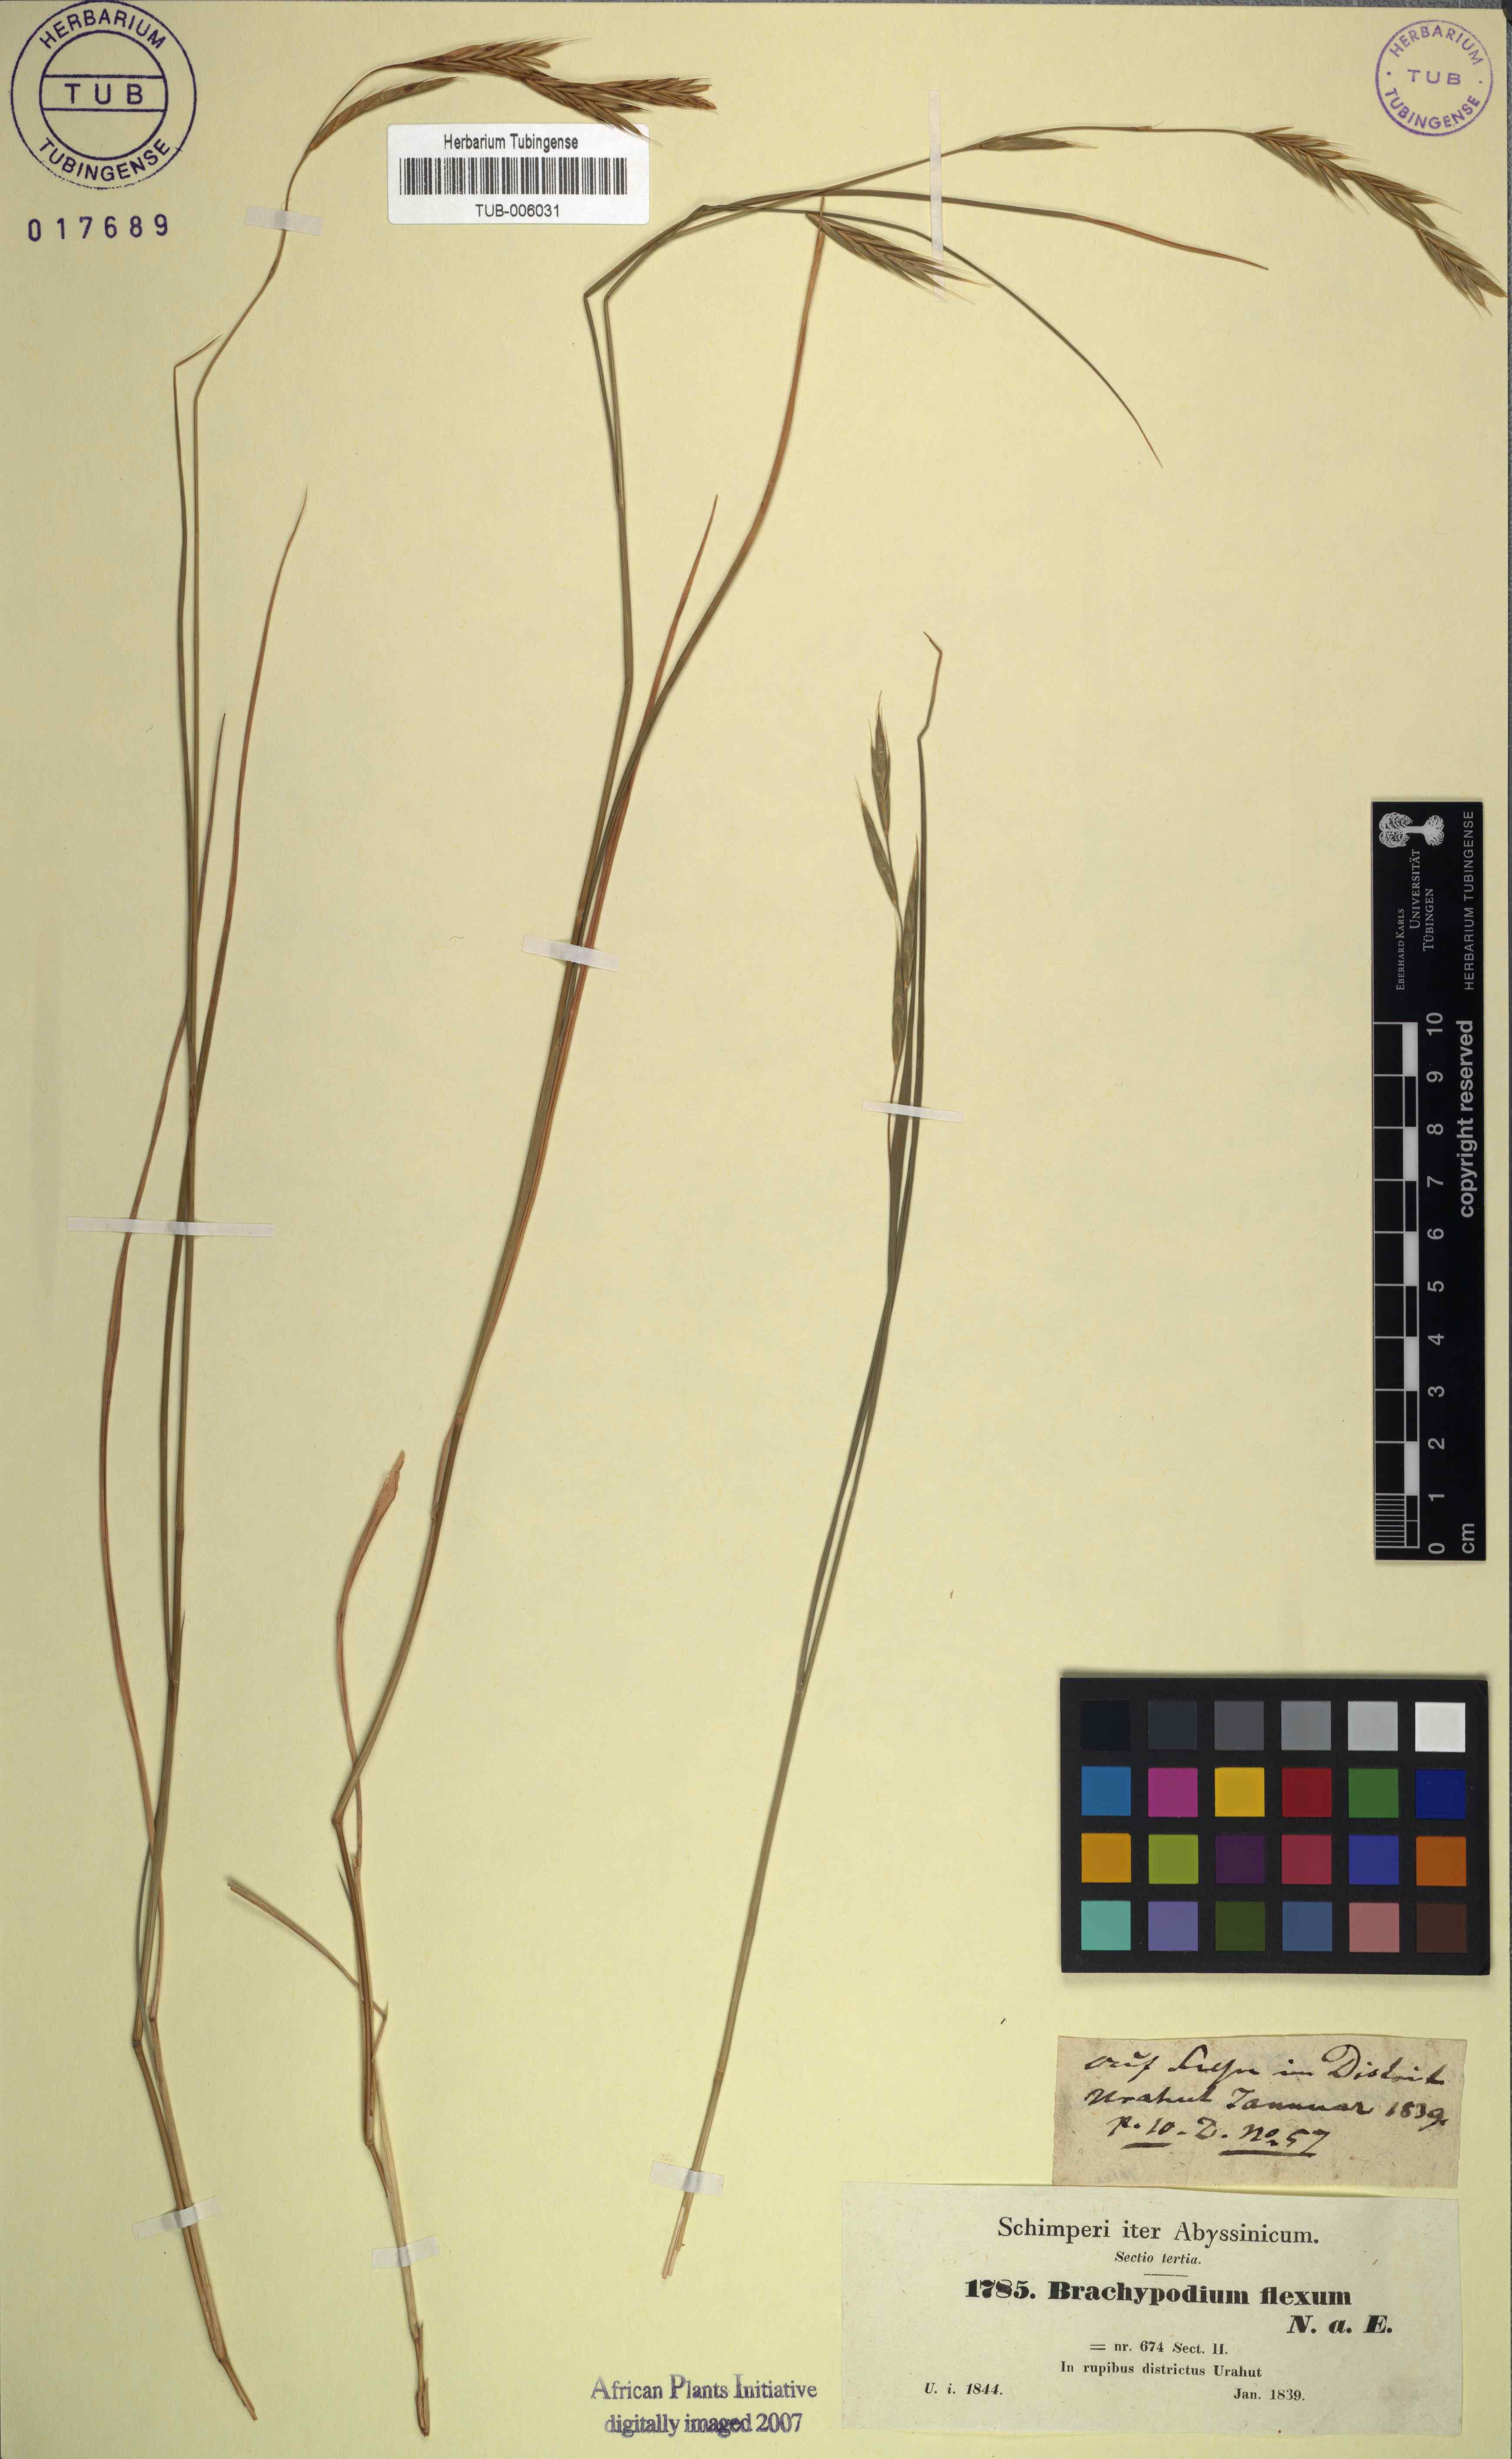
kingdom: Plantae
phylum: Tracheophyta
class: Liliopsida
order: Poales
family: Poaceae
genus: Brachypodium
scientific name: Brachypodium flexum
